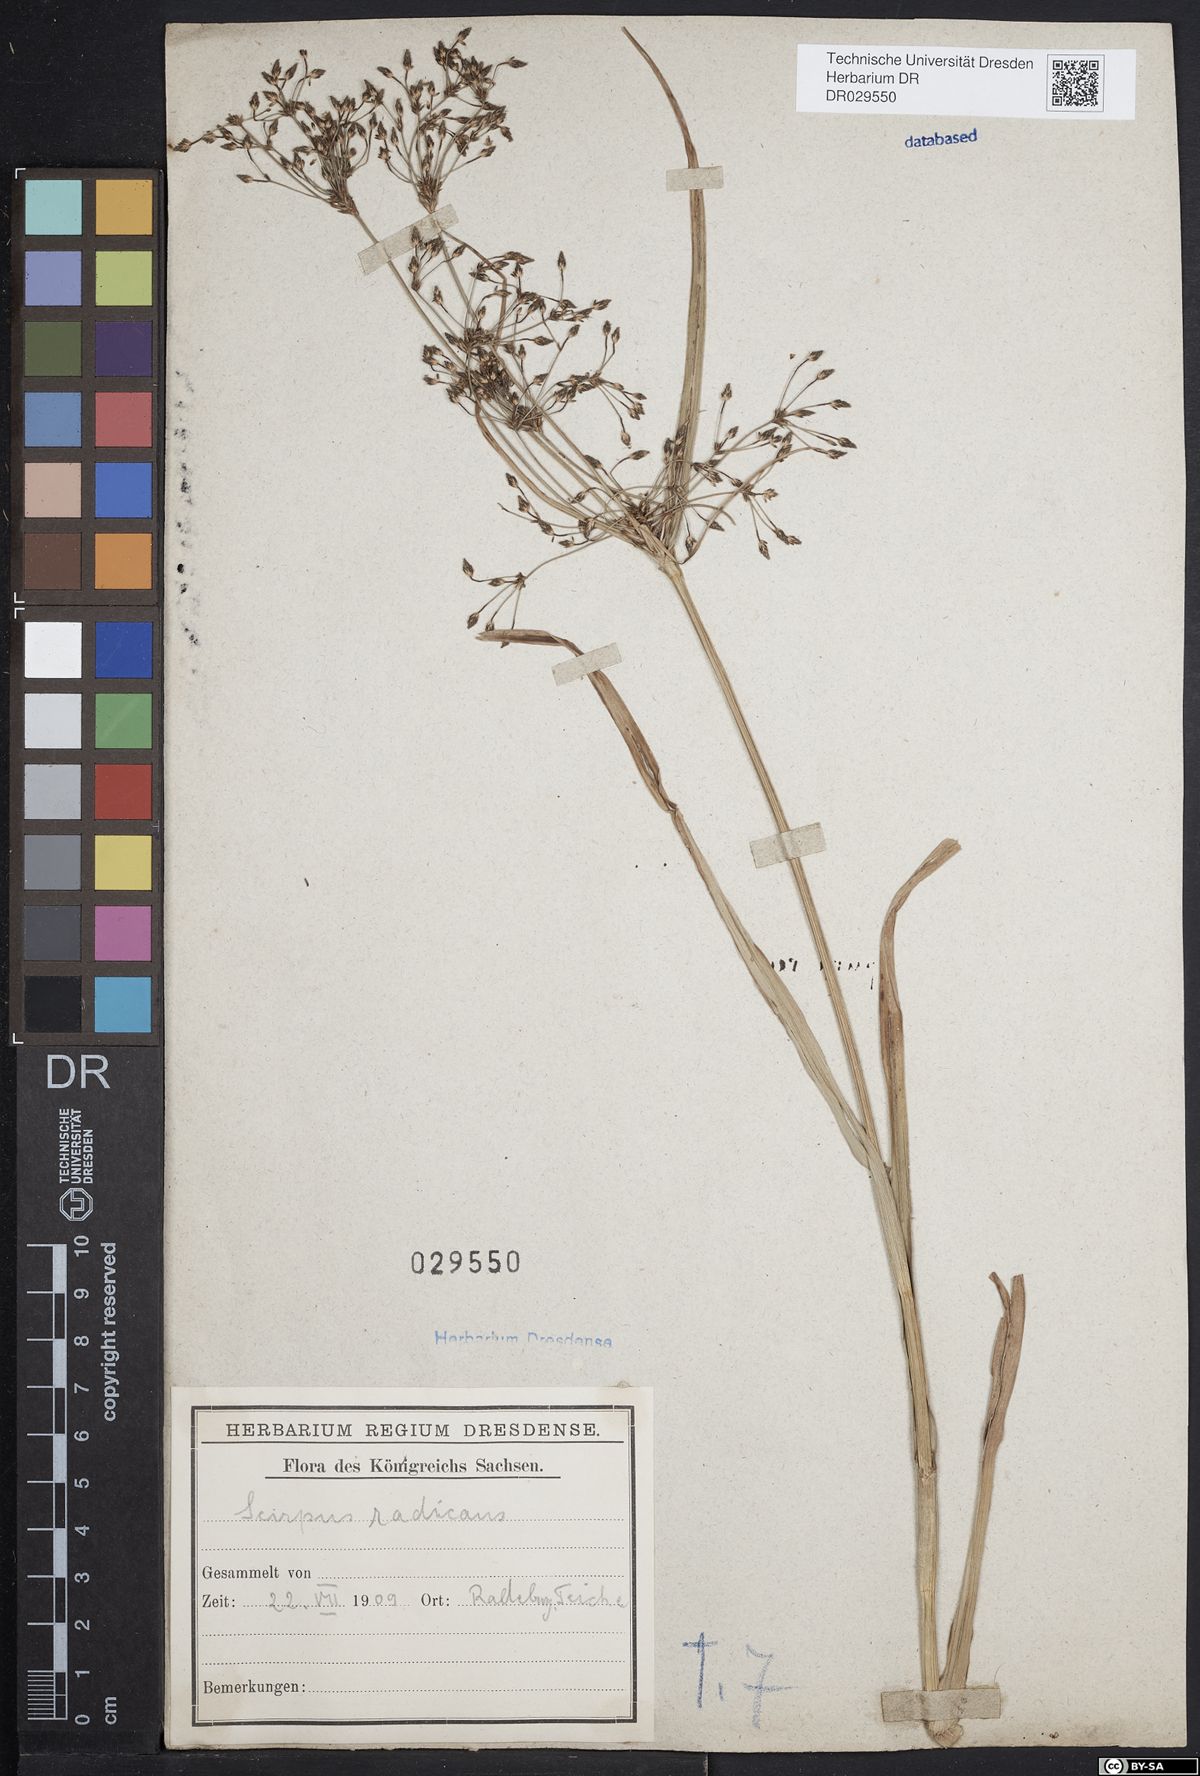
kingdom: Plantae
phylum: Tracheophyta
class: Liliopsida
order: Poales
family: Cyperaceae
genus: Scirpus
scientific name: Scirpus radicans
